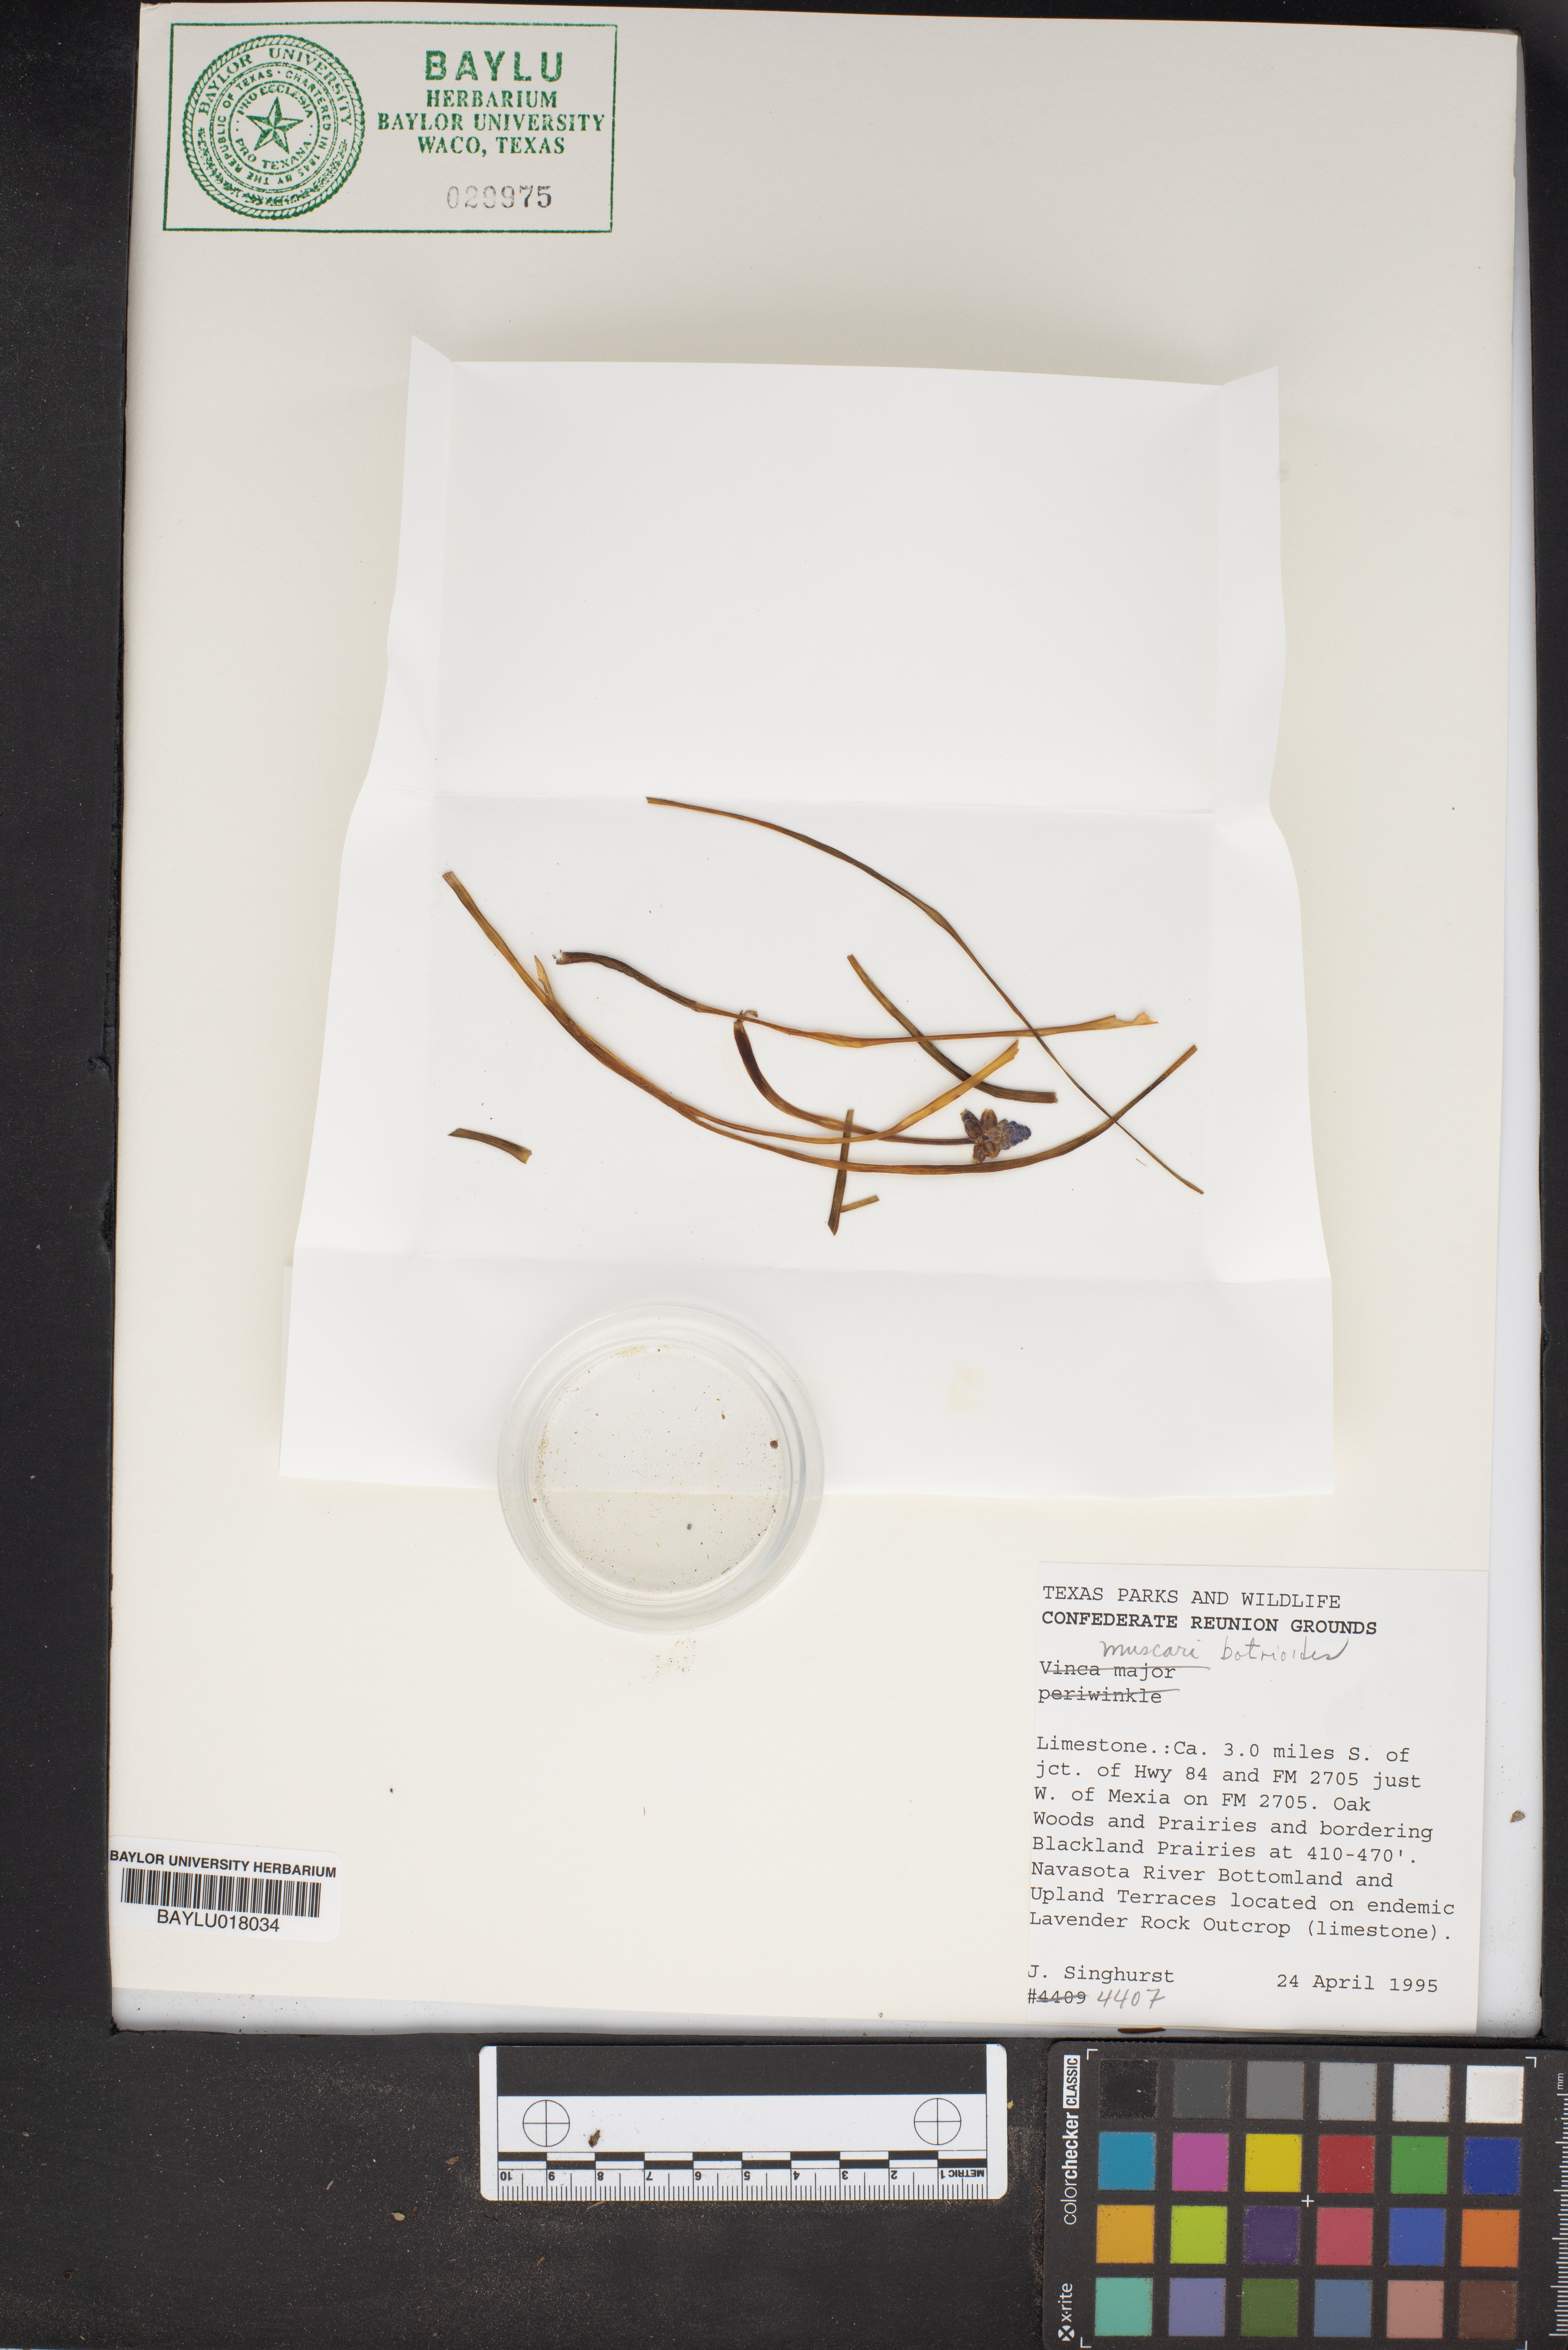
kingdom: Plantae
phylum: Tracheophyta
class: Liliopsida
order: Asparagales
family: Asparagaceae
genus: Muscari
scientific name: Muscari botryoides
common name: Compact grape-hyacinth
